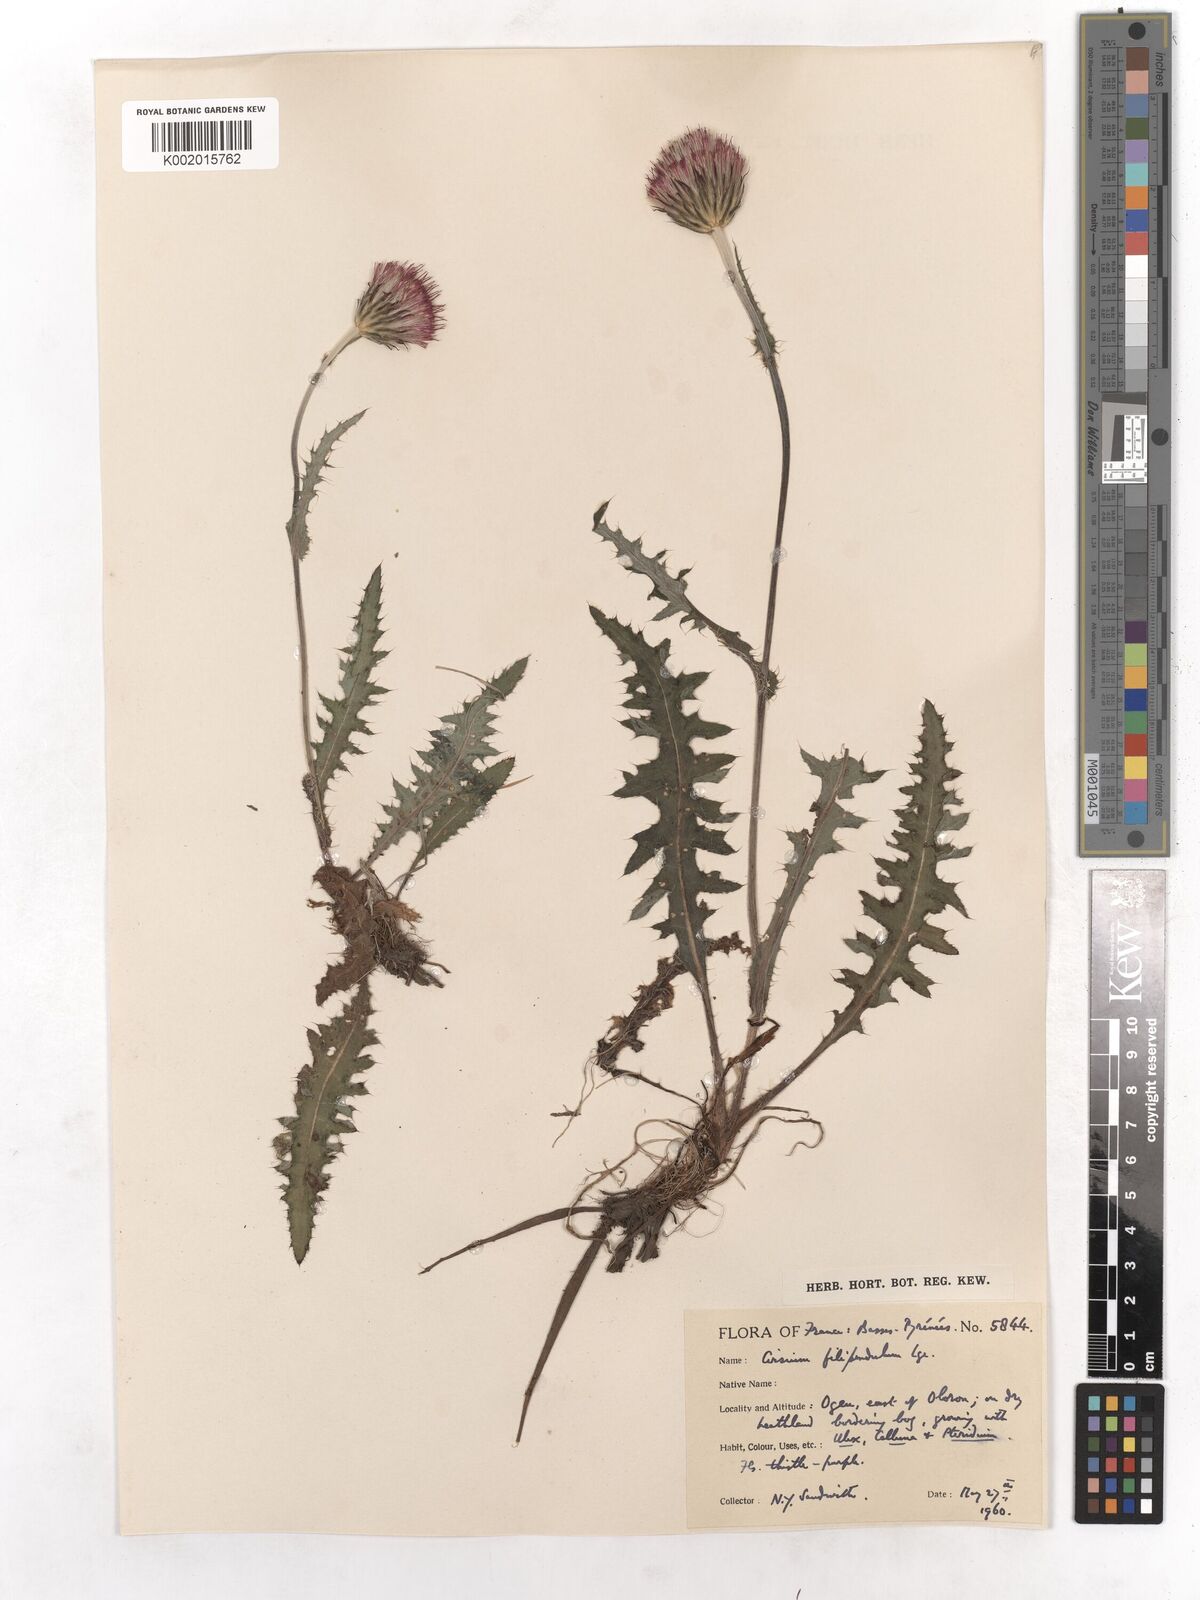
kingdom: Plantae
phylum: Tracheophyta
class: Magnoliopsida
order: Asterales
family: Asteraceae
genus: Cirsium
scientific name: Cirsium filipendulum
